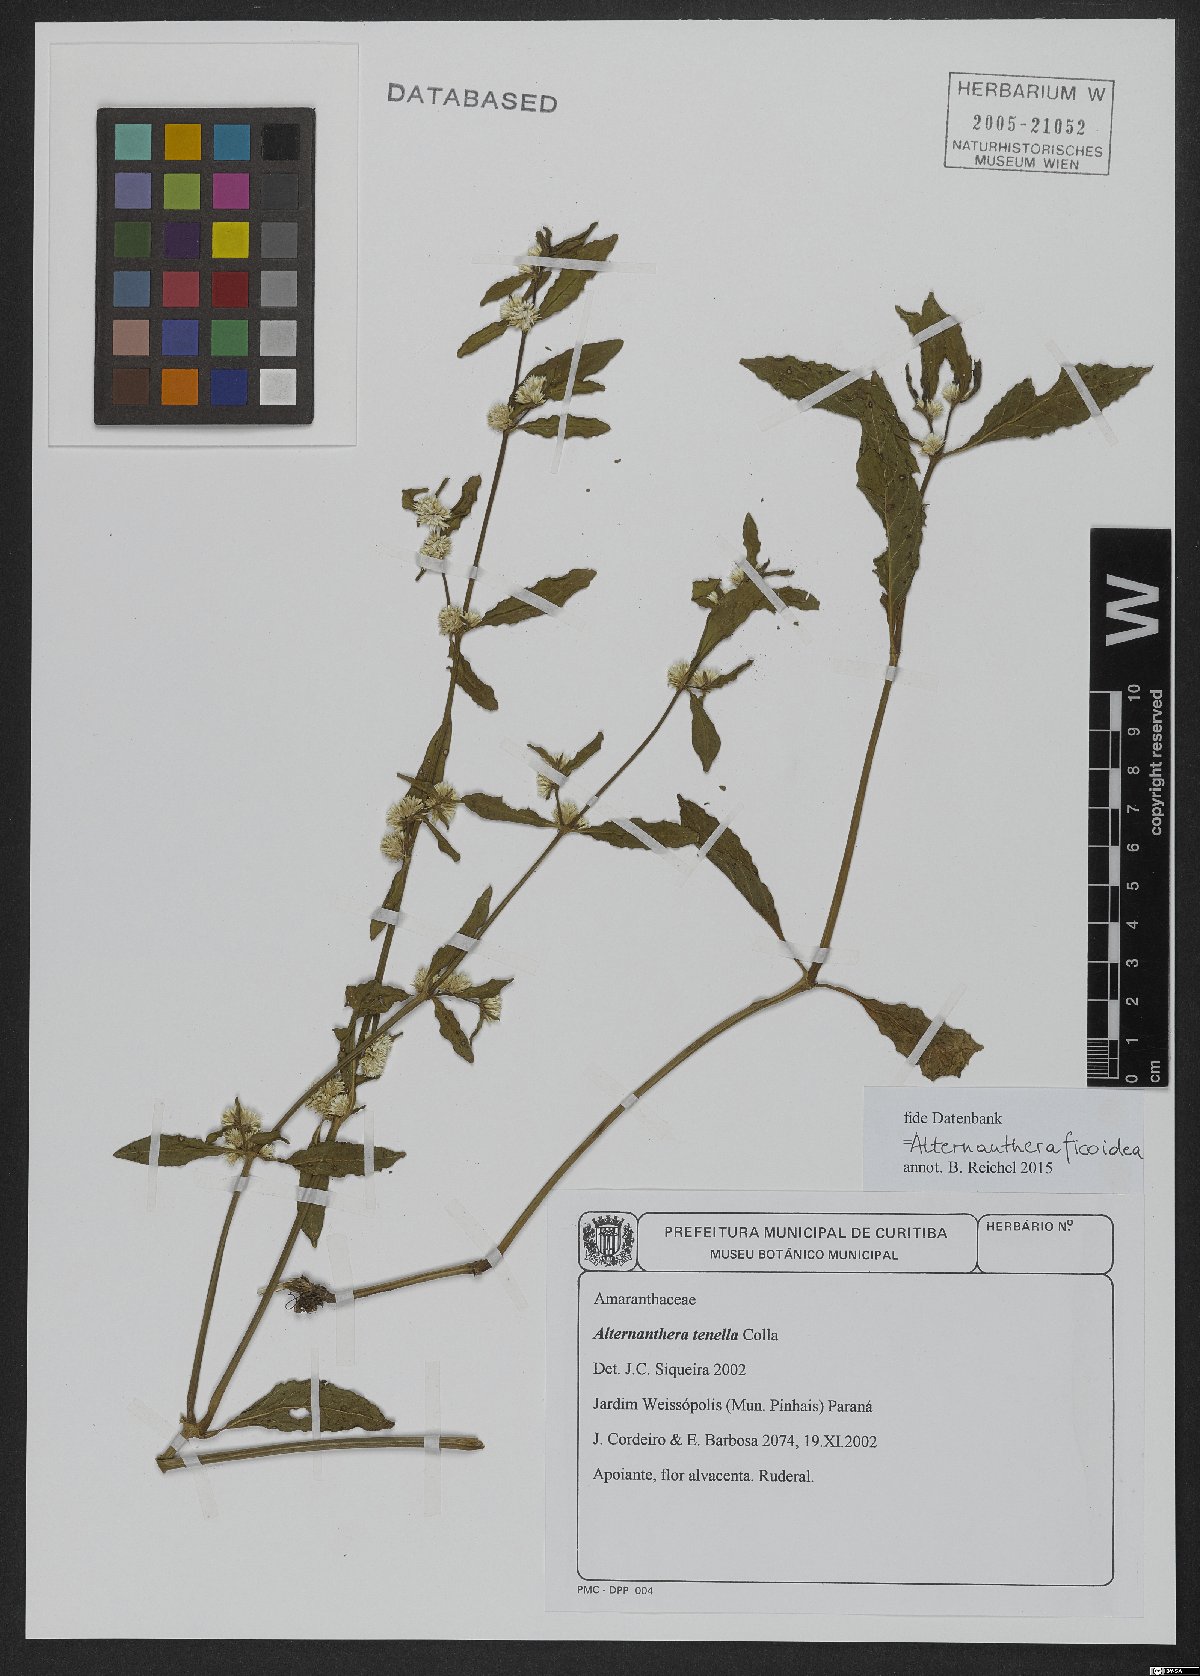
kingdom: Plantae
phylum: Tracheophyta
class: Magnoliopsida
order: Caryophyllales
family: Amaranthaceae
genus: Alternanthera
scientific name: Alternanthera ficoidea
